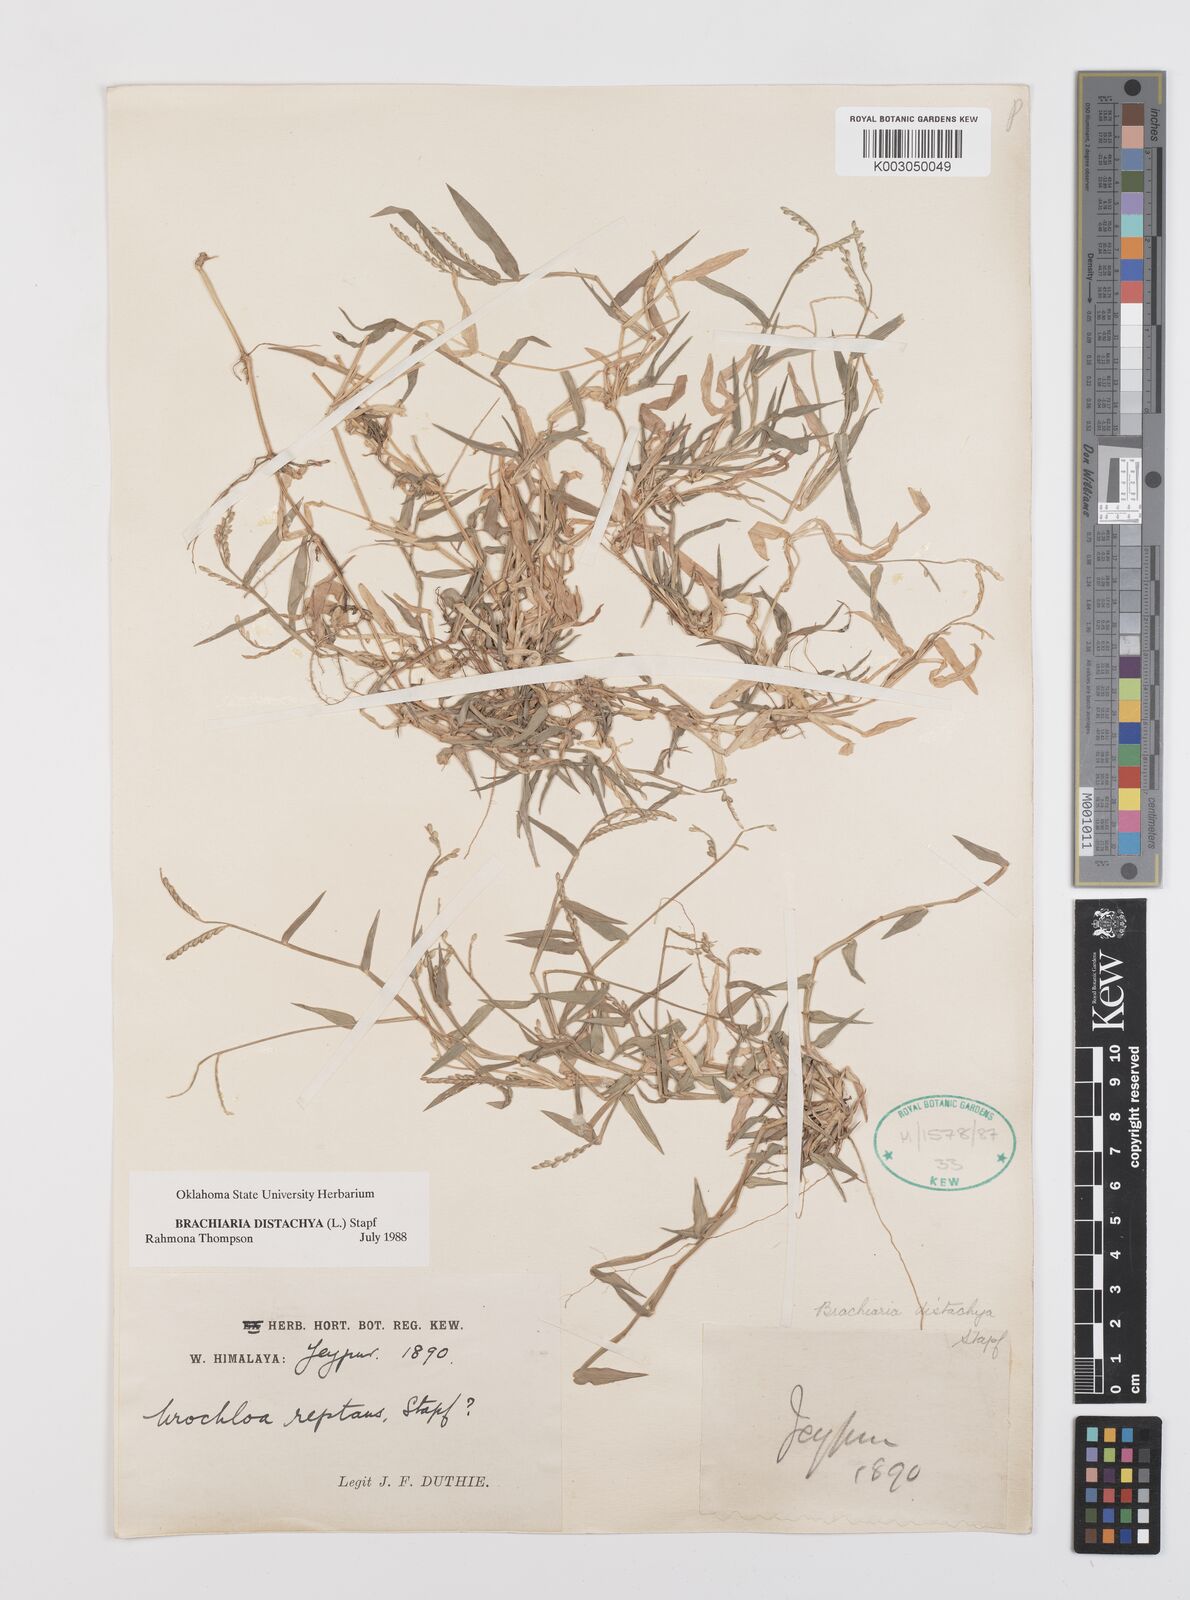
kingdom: Plantae
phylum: Tracheophyta
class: Liliopsida
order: Poales
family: Poaceae
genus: Urochloa
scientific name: Urochloa distachyos
